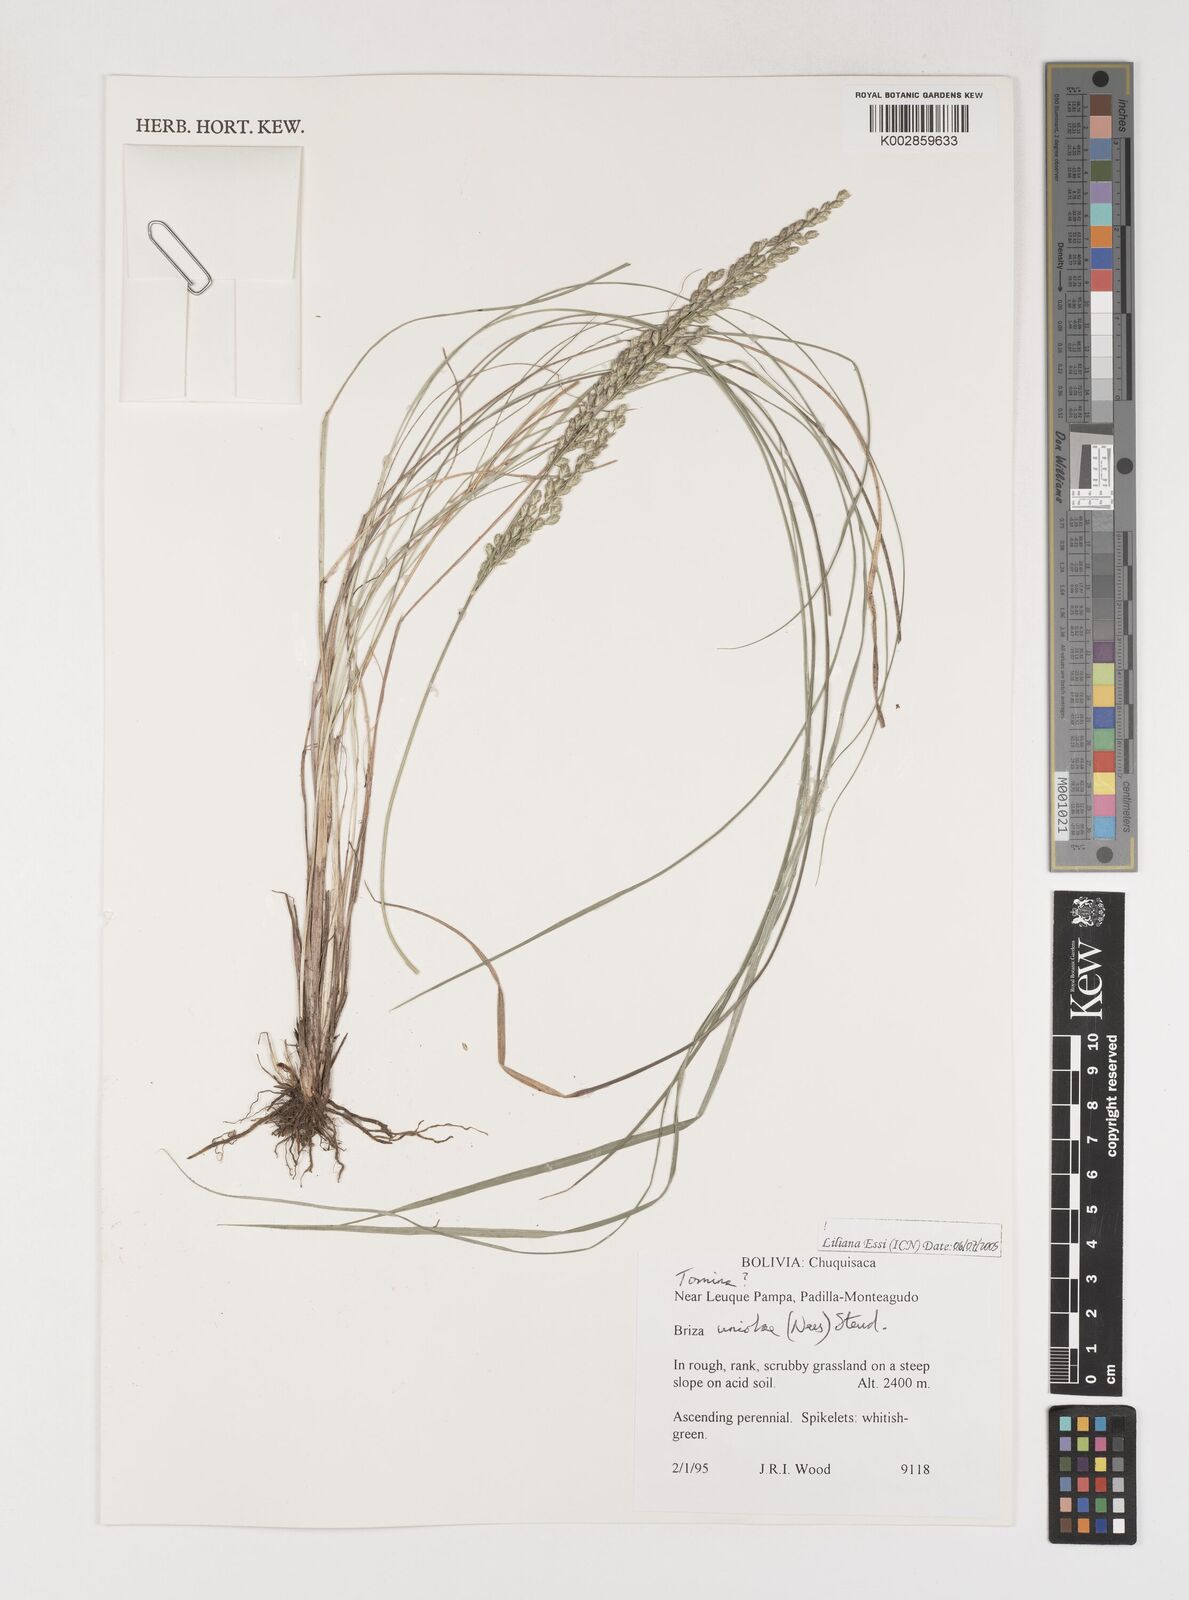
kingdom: Plantae
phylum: Tracheophyta
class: Liliopsida
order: Poales
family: Poaceae
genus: Poidium
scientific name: Poidium uniolae
